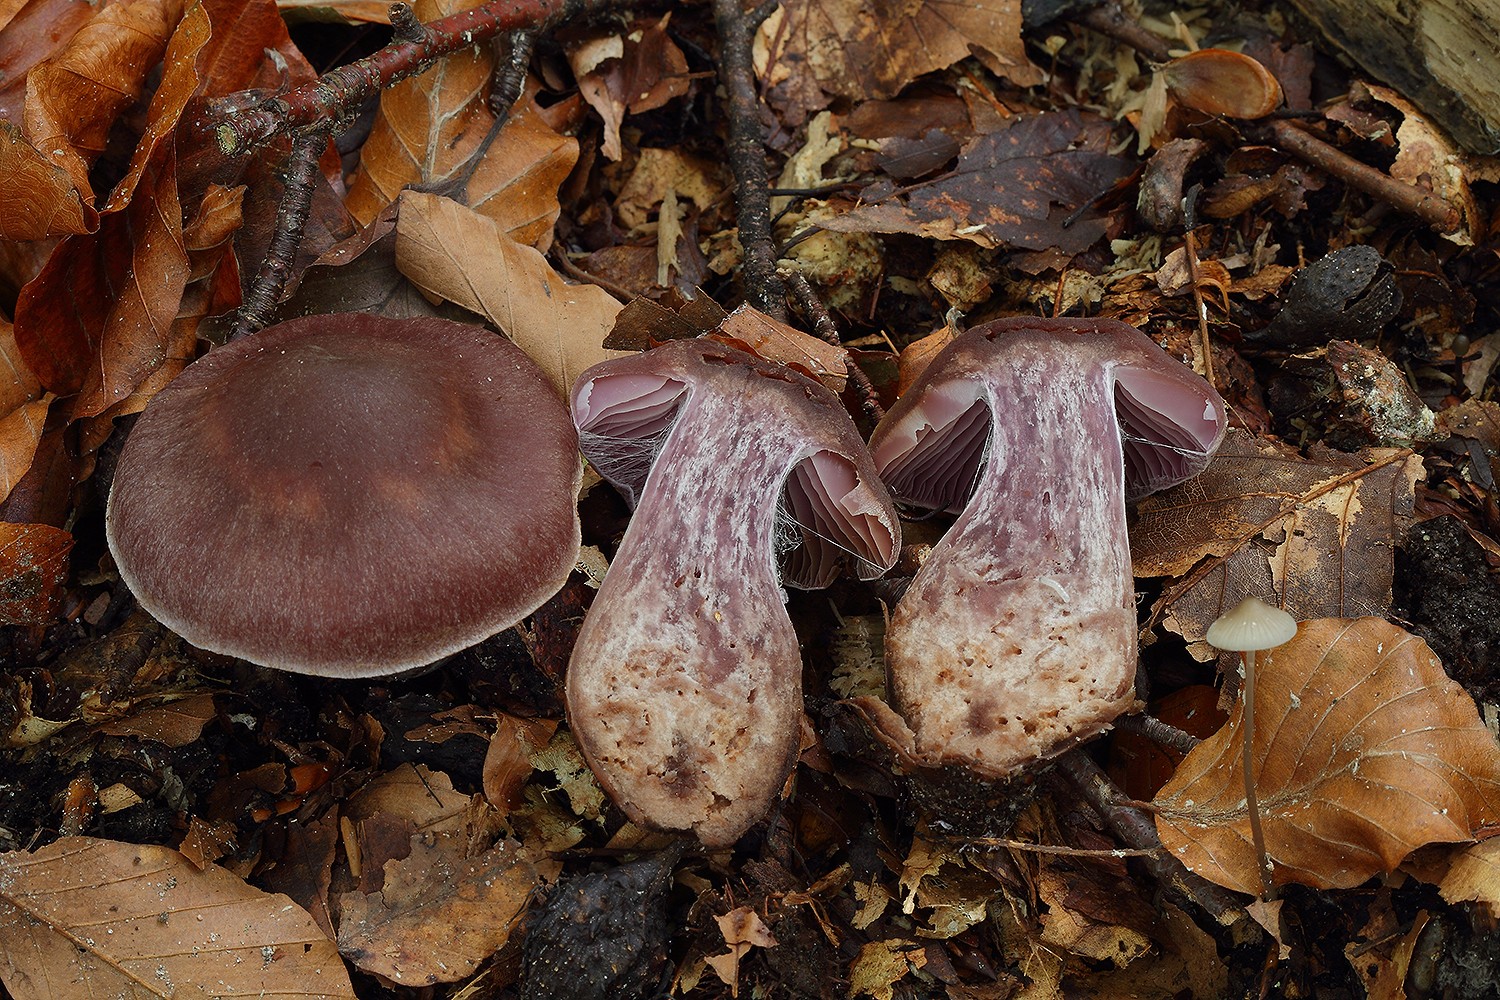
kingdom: Fungi
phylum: Basidiomycota
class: Agaricomycetes
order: Agaricales
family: Cortinariaceae
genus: Cortinarius
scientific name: Cortinarius ainsworthii
